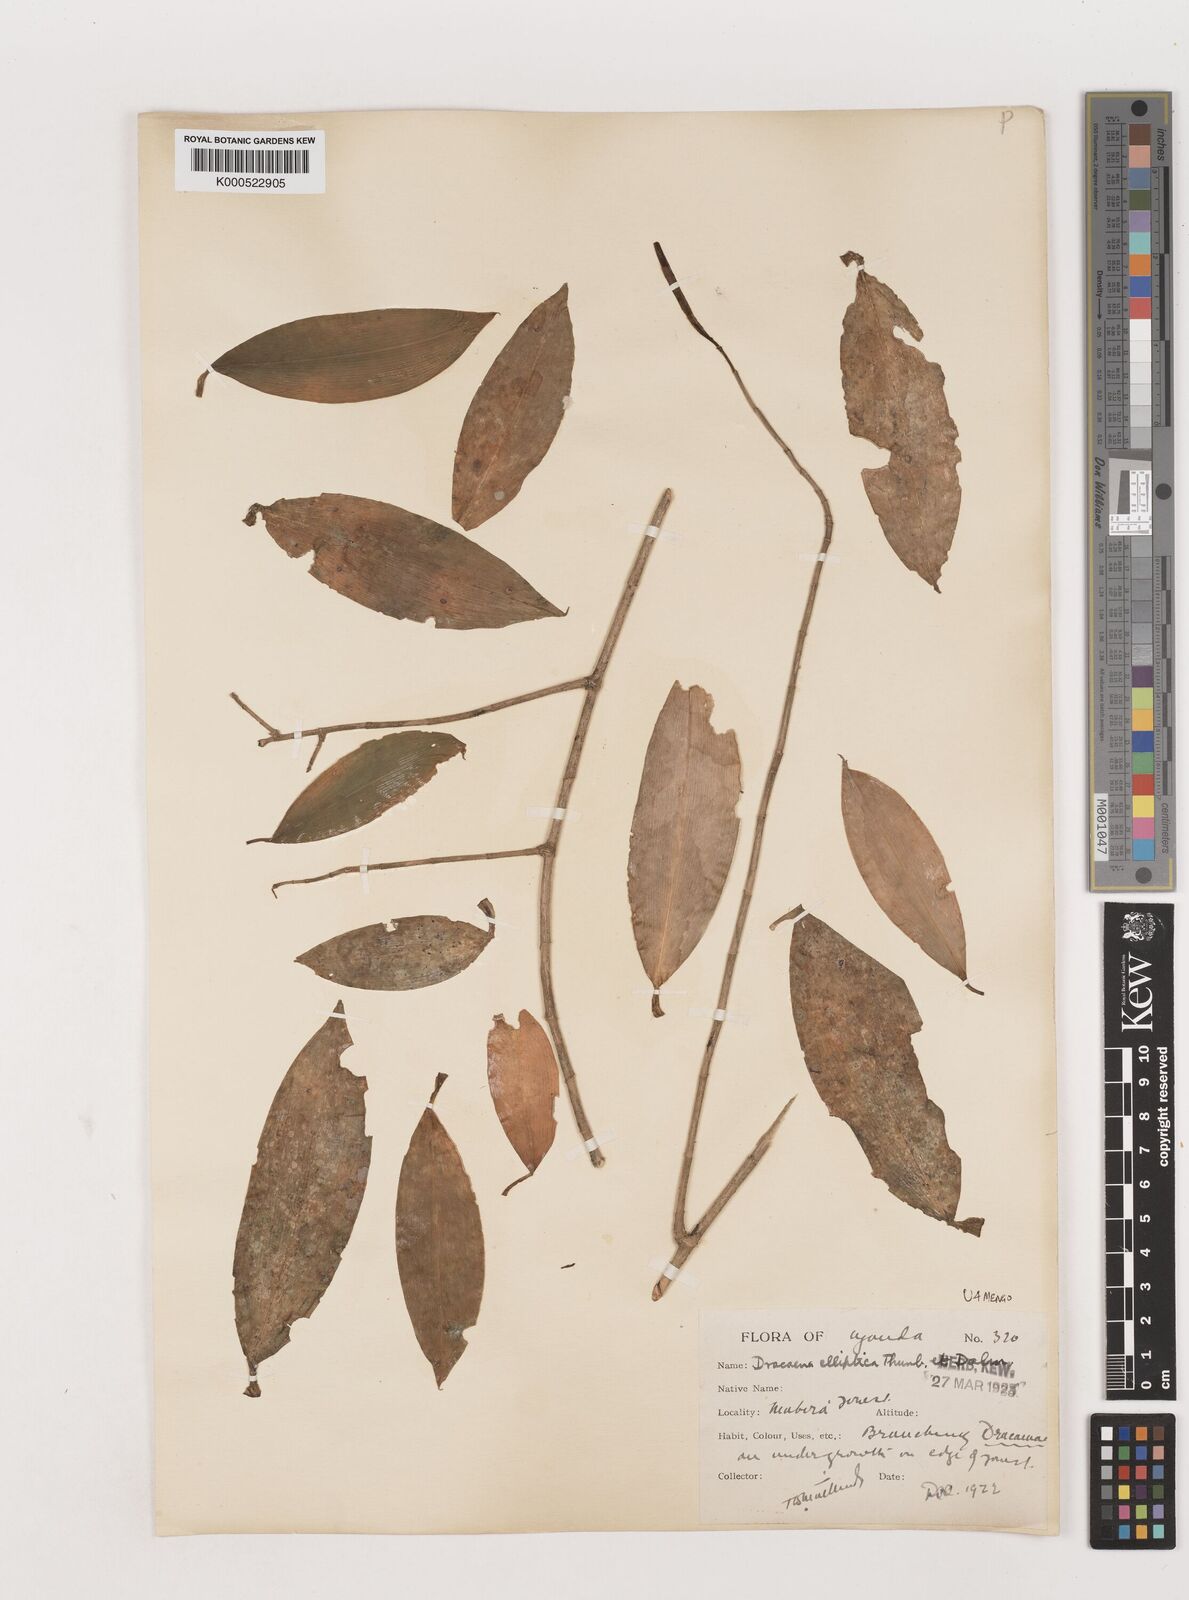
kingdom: Plantae
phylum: Tracheophyta
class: Liliopsida
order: Asparagales
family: Asparagaceae
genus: Dracaena
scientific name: Dracaena laxissima
